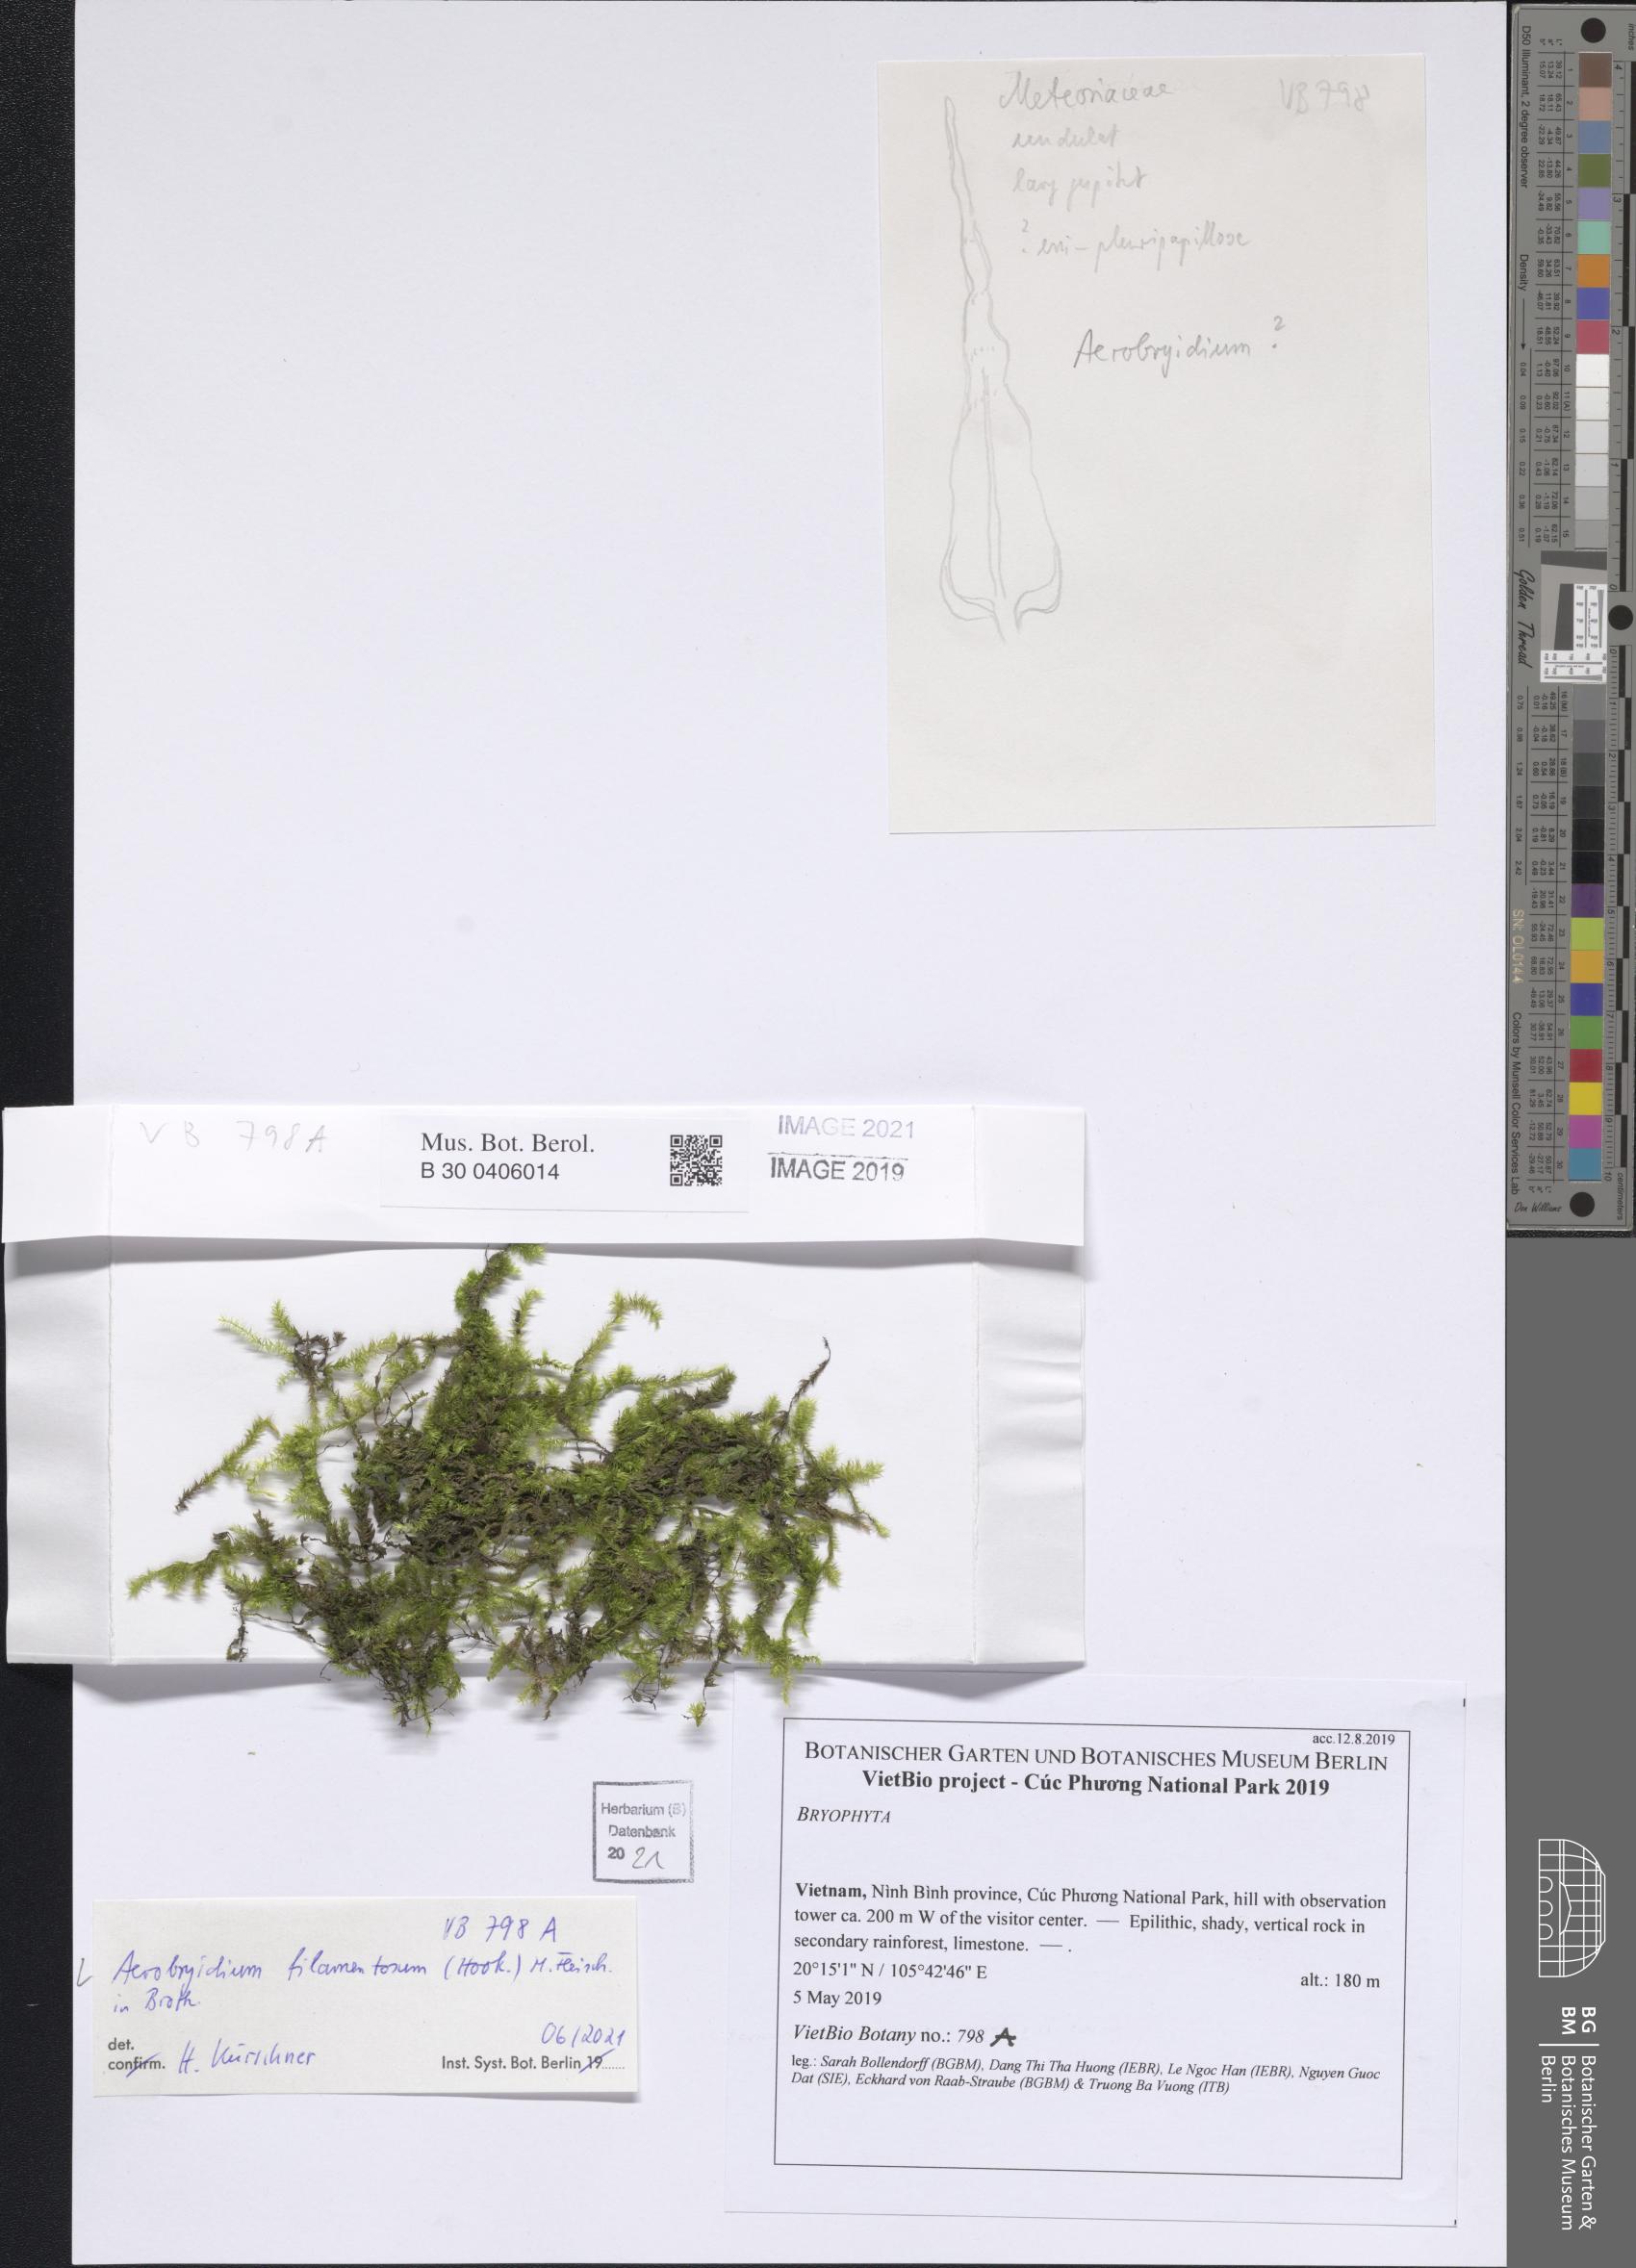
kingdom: Plantae
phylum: Bryophyta
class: Bryopsida
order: Hypnales
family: Meteoriaceae
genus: Aerobryidium
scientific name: Aerobryidium filamentosum
